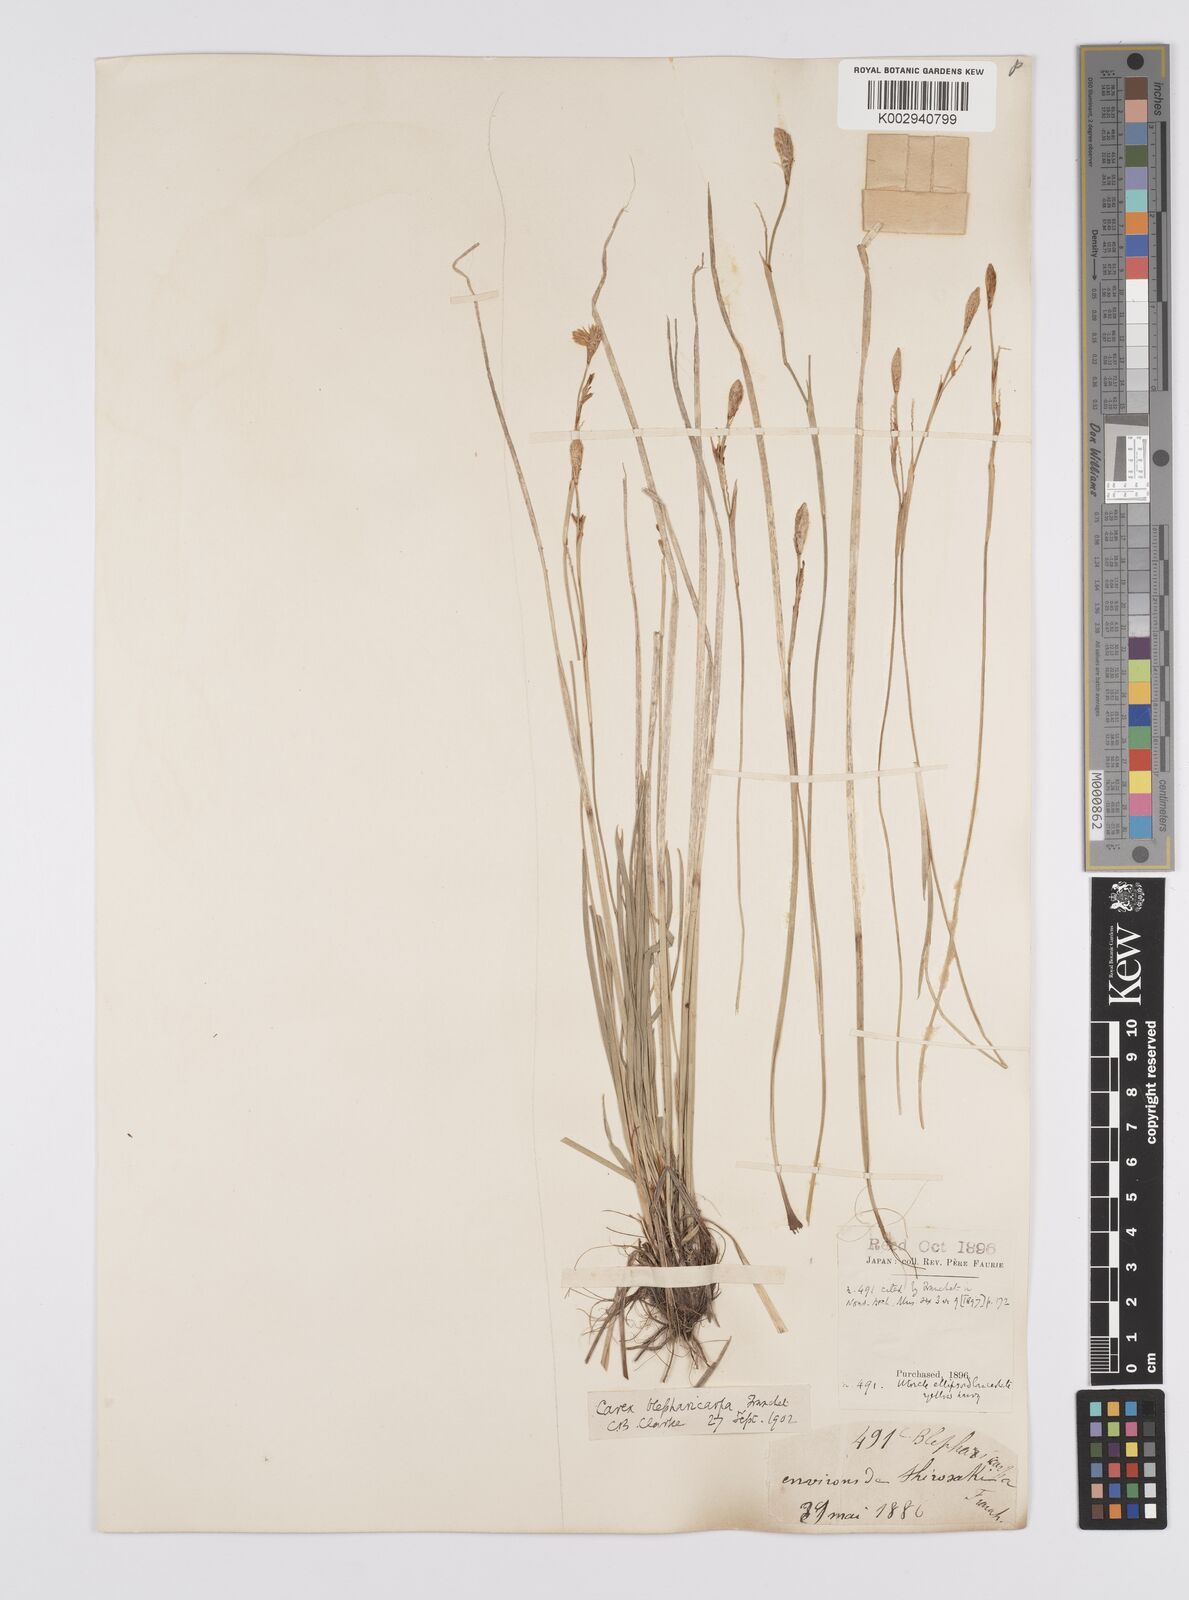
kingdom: Plantae
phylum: Tracheophyta
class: Liliopsida
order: Poales
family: Cyperaceae
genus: Carex
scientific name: Carex blepharicarpa
